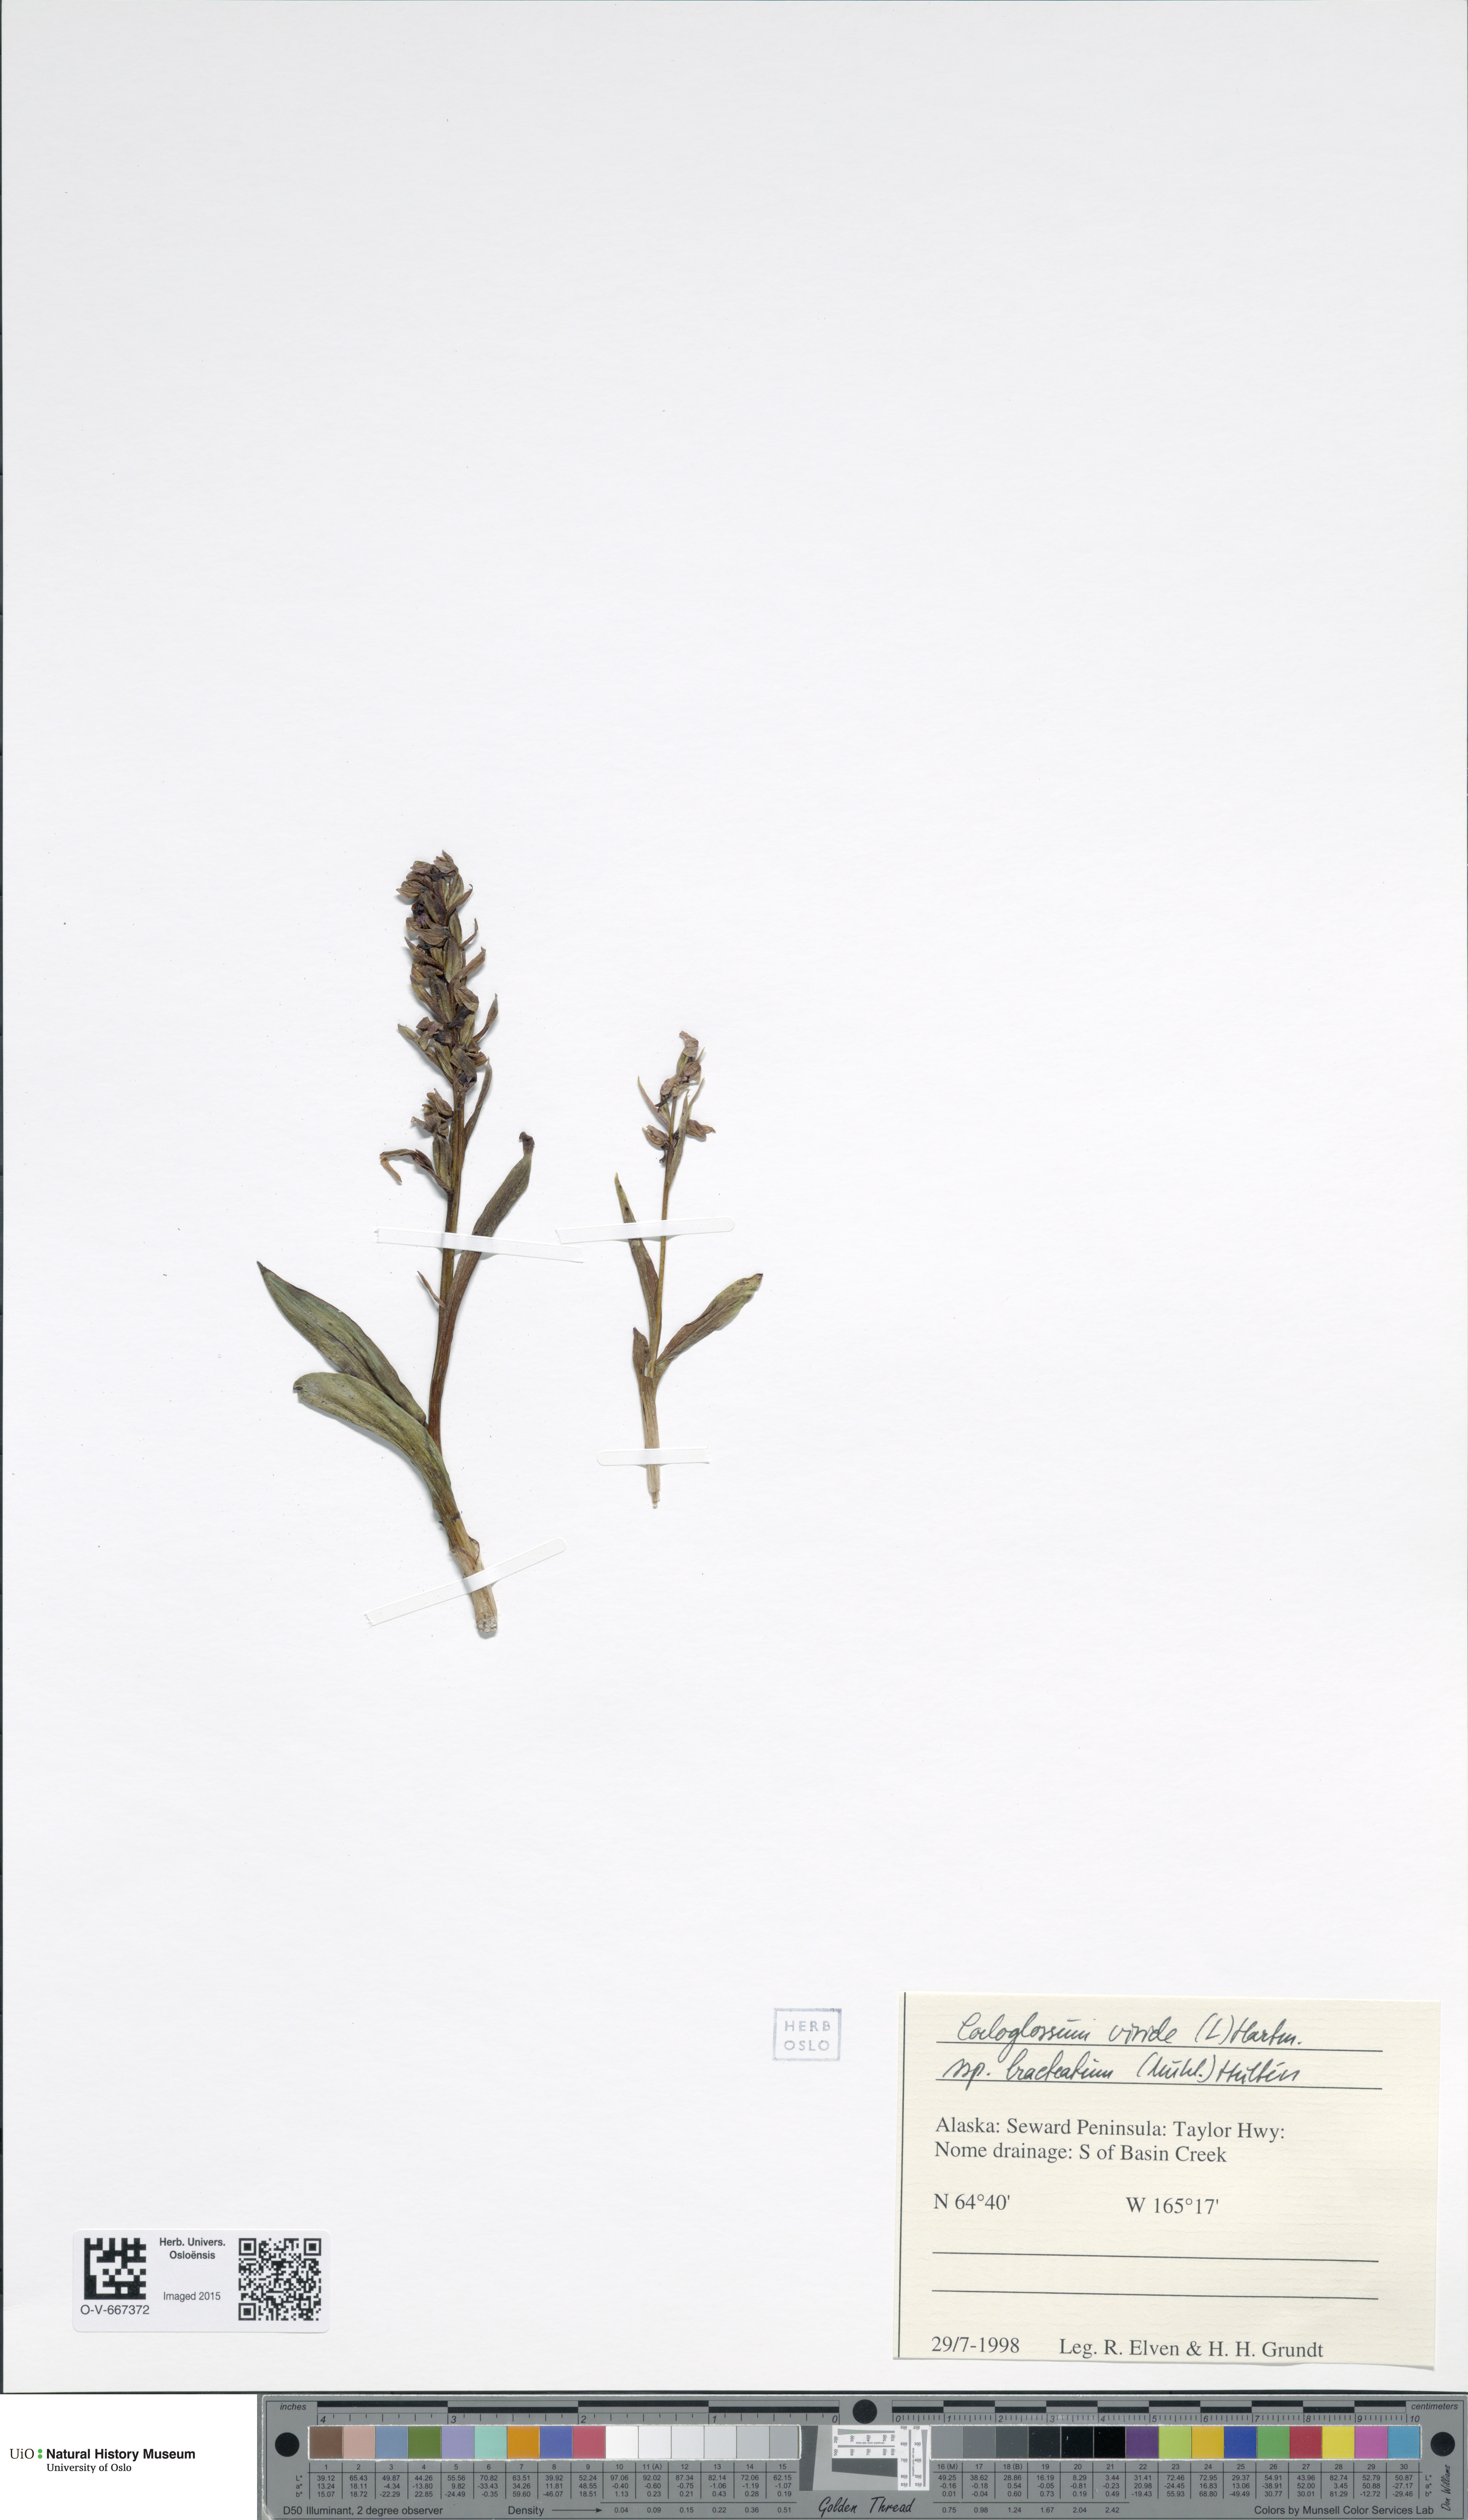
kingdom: Plantae
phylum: Tracheophyta
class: Liliopsida
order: Asparagales
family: Orchidaceae
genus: Dactylorhiza
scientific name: Dactylorhiza viridis
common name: Longbract frog orchid
